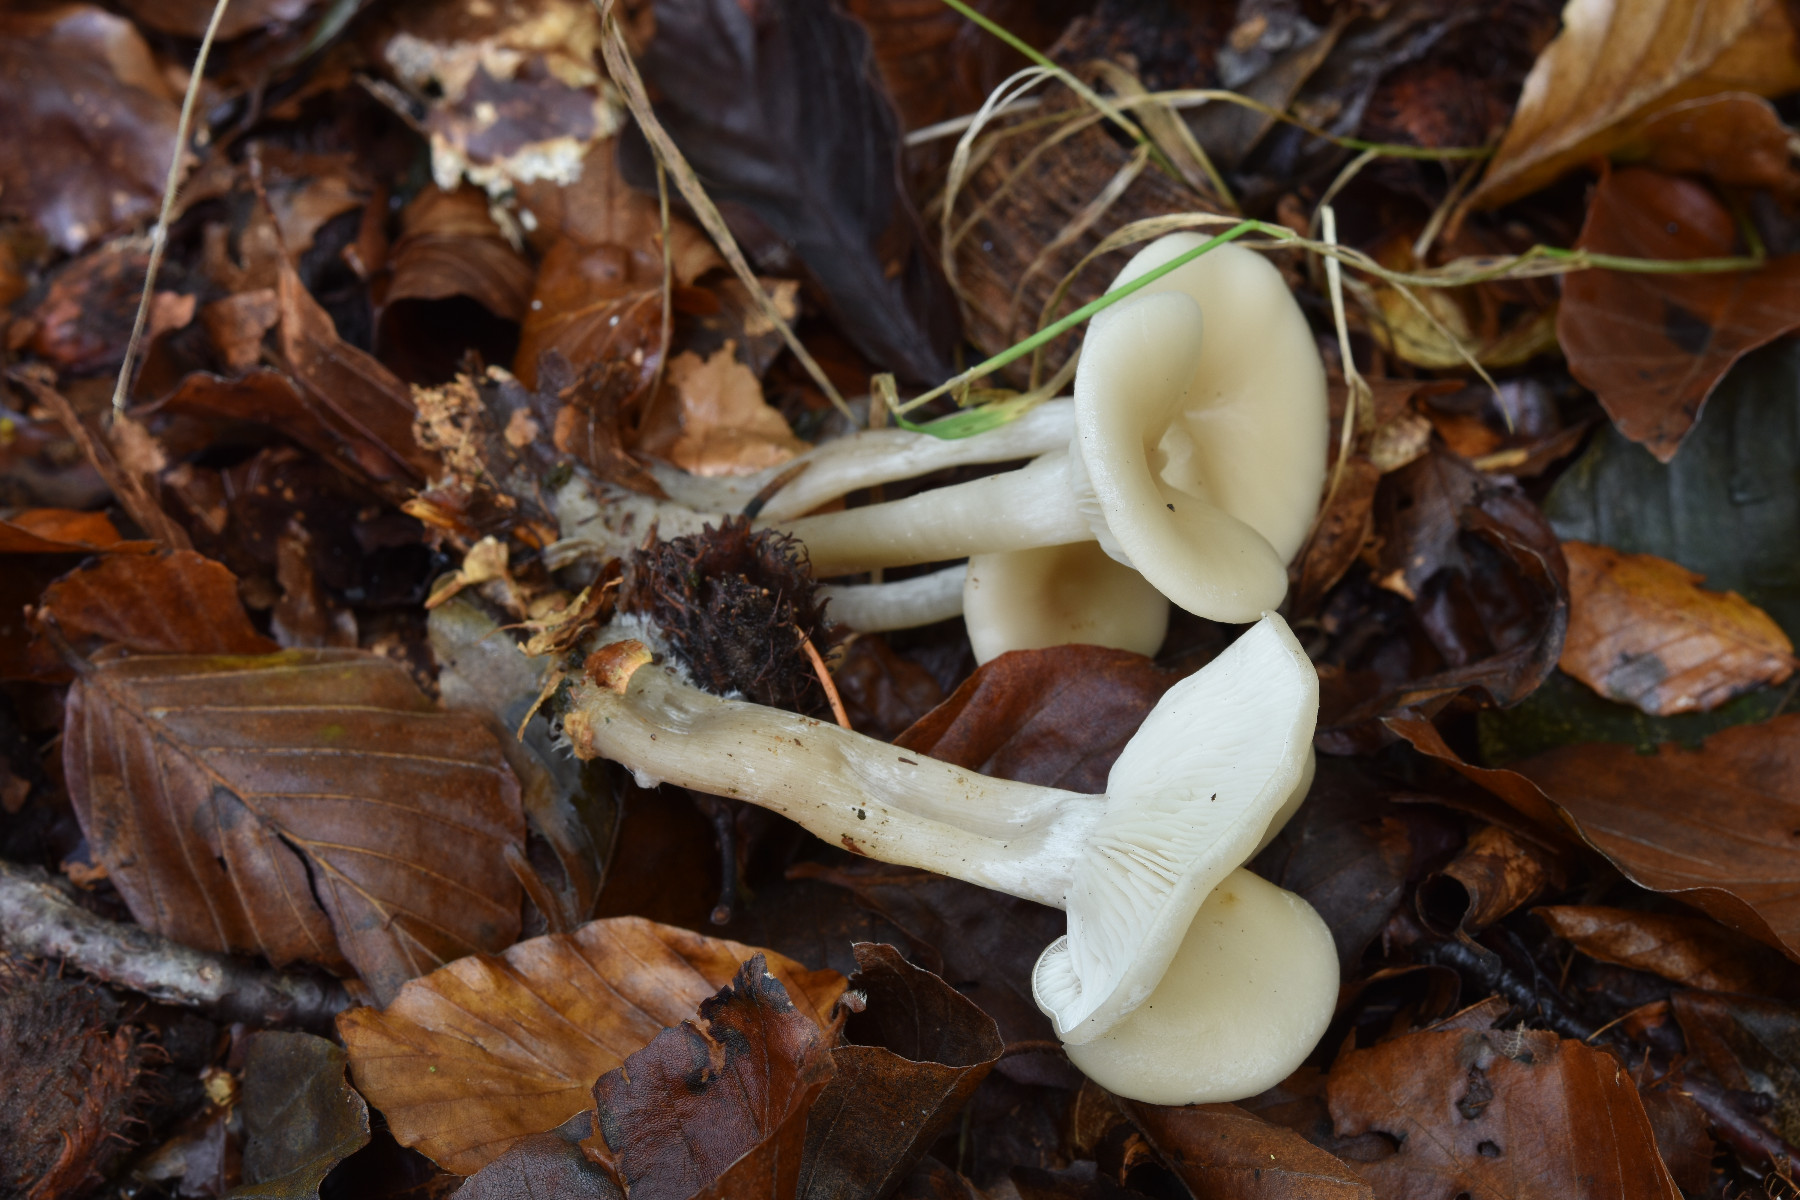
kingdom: Fungi
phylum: Basidiomycota
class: Agaricomycetes
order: Agaricales
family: Tricholomataceae
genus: Clitocybe
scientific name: Clitocybe metachroa
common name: grå tragthat
